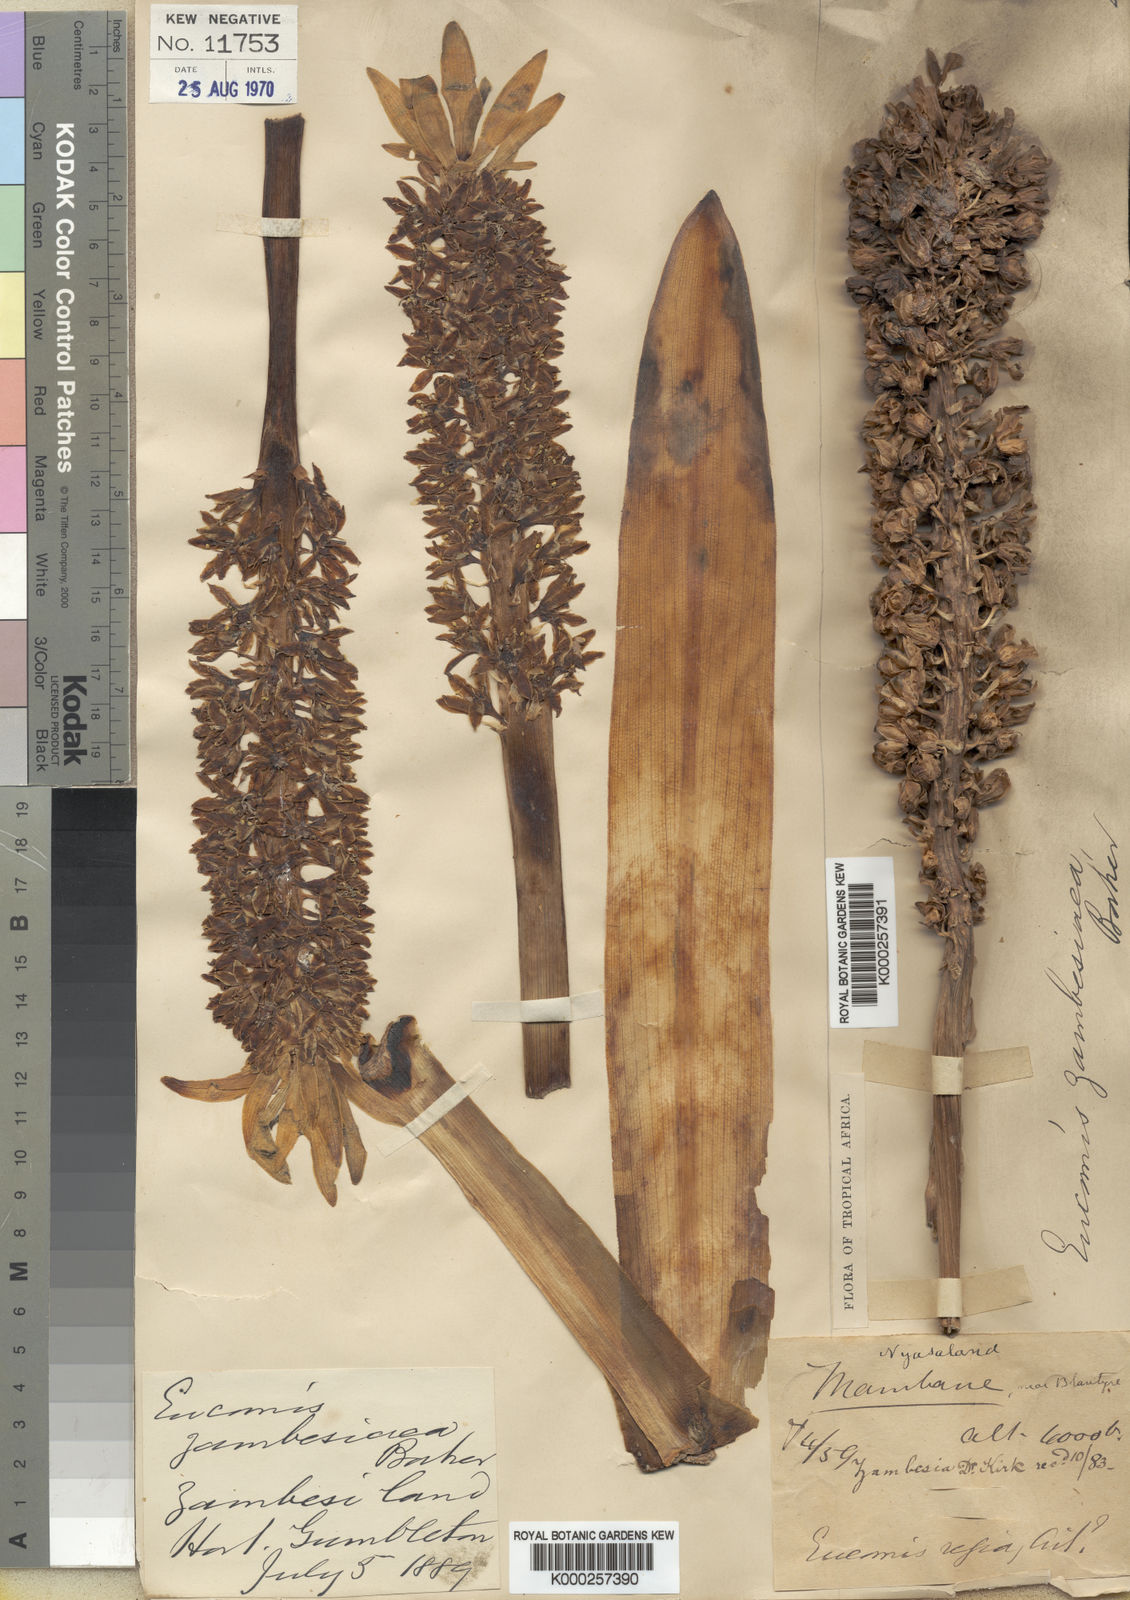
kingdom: Plantae
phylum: Tracheophyta
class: Liliopsida
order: Asparagales
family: Asparagaceae
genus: Eucomis
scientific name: Eucomis zambesiaca
